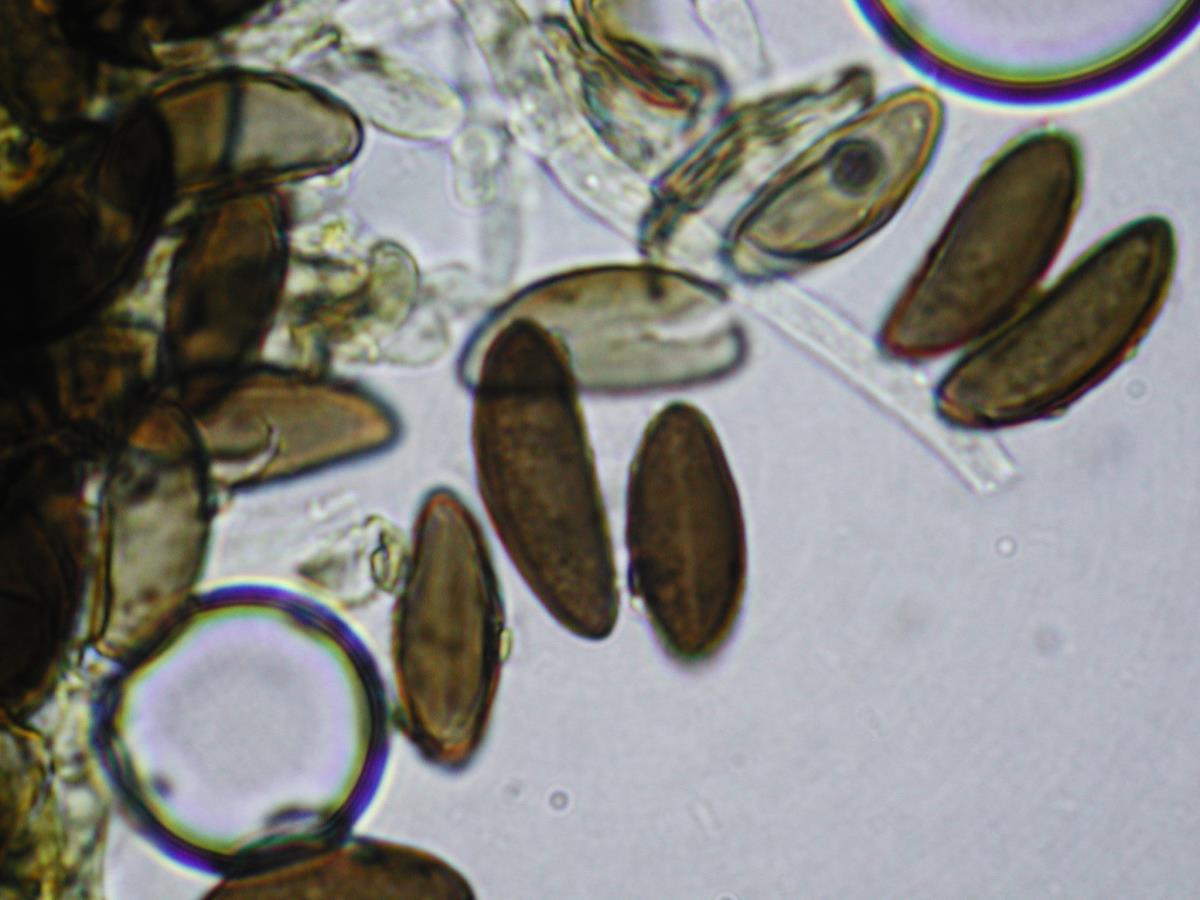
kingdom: Fungi
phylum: Ascomycota
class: Sordariomycetes
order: Xylariales
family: Hypoxylaceae
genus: Daldinia
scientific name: Daldinia dennisii
